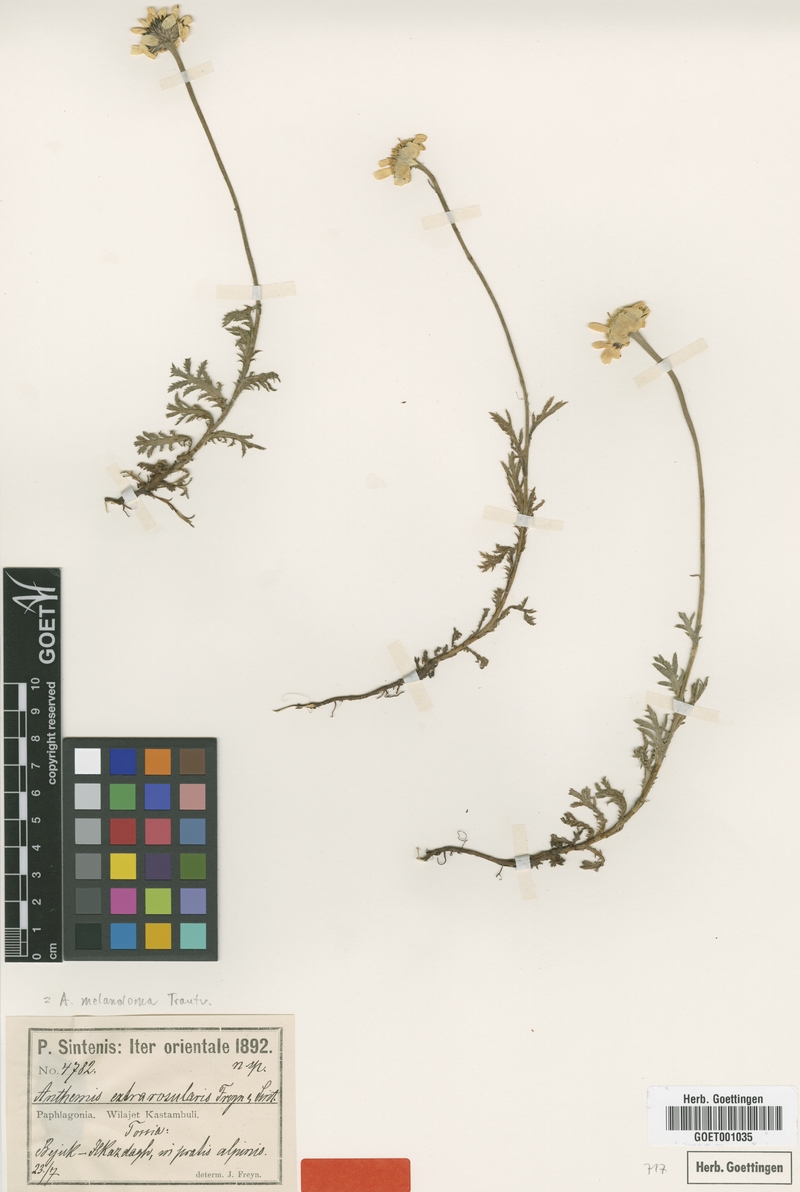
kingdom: Plantae
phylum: Tracheophyta
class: Magnoliopsida
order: Asterales
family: Asteraceae
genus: Cota
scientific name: Cota melanoloma
